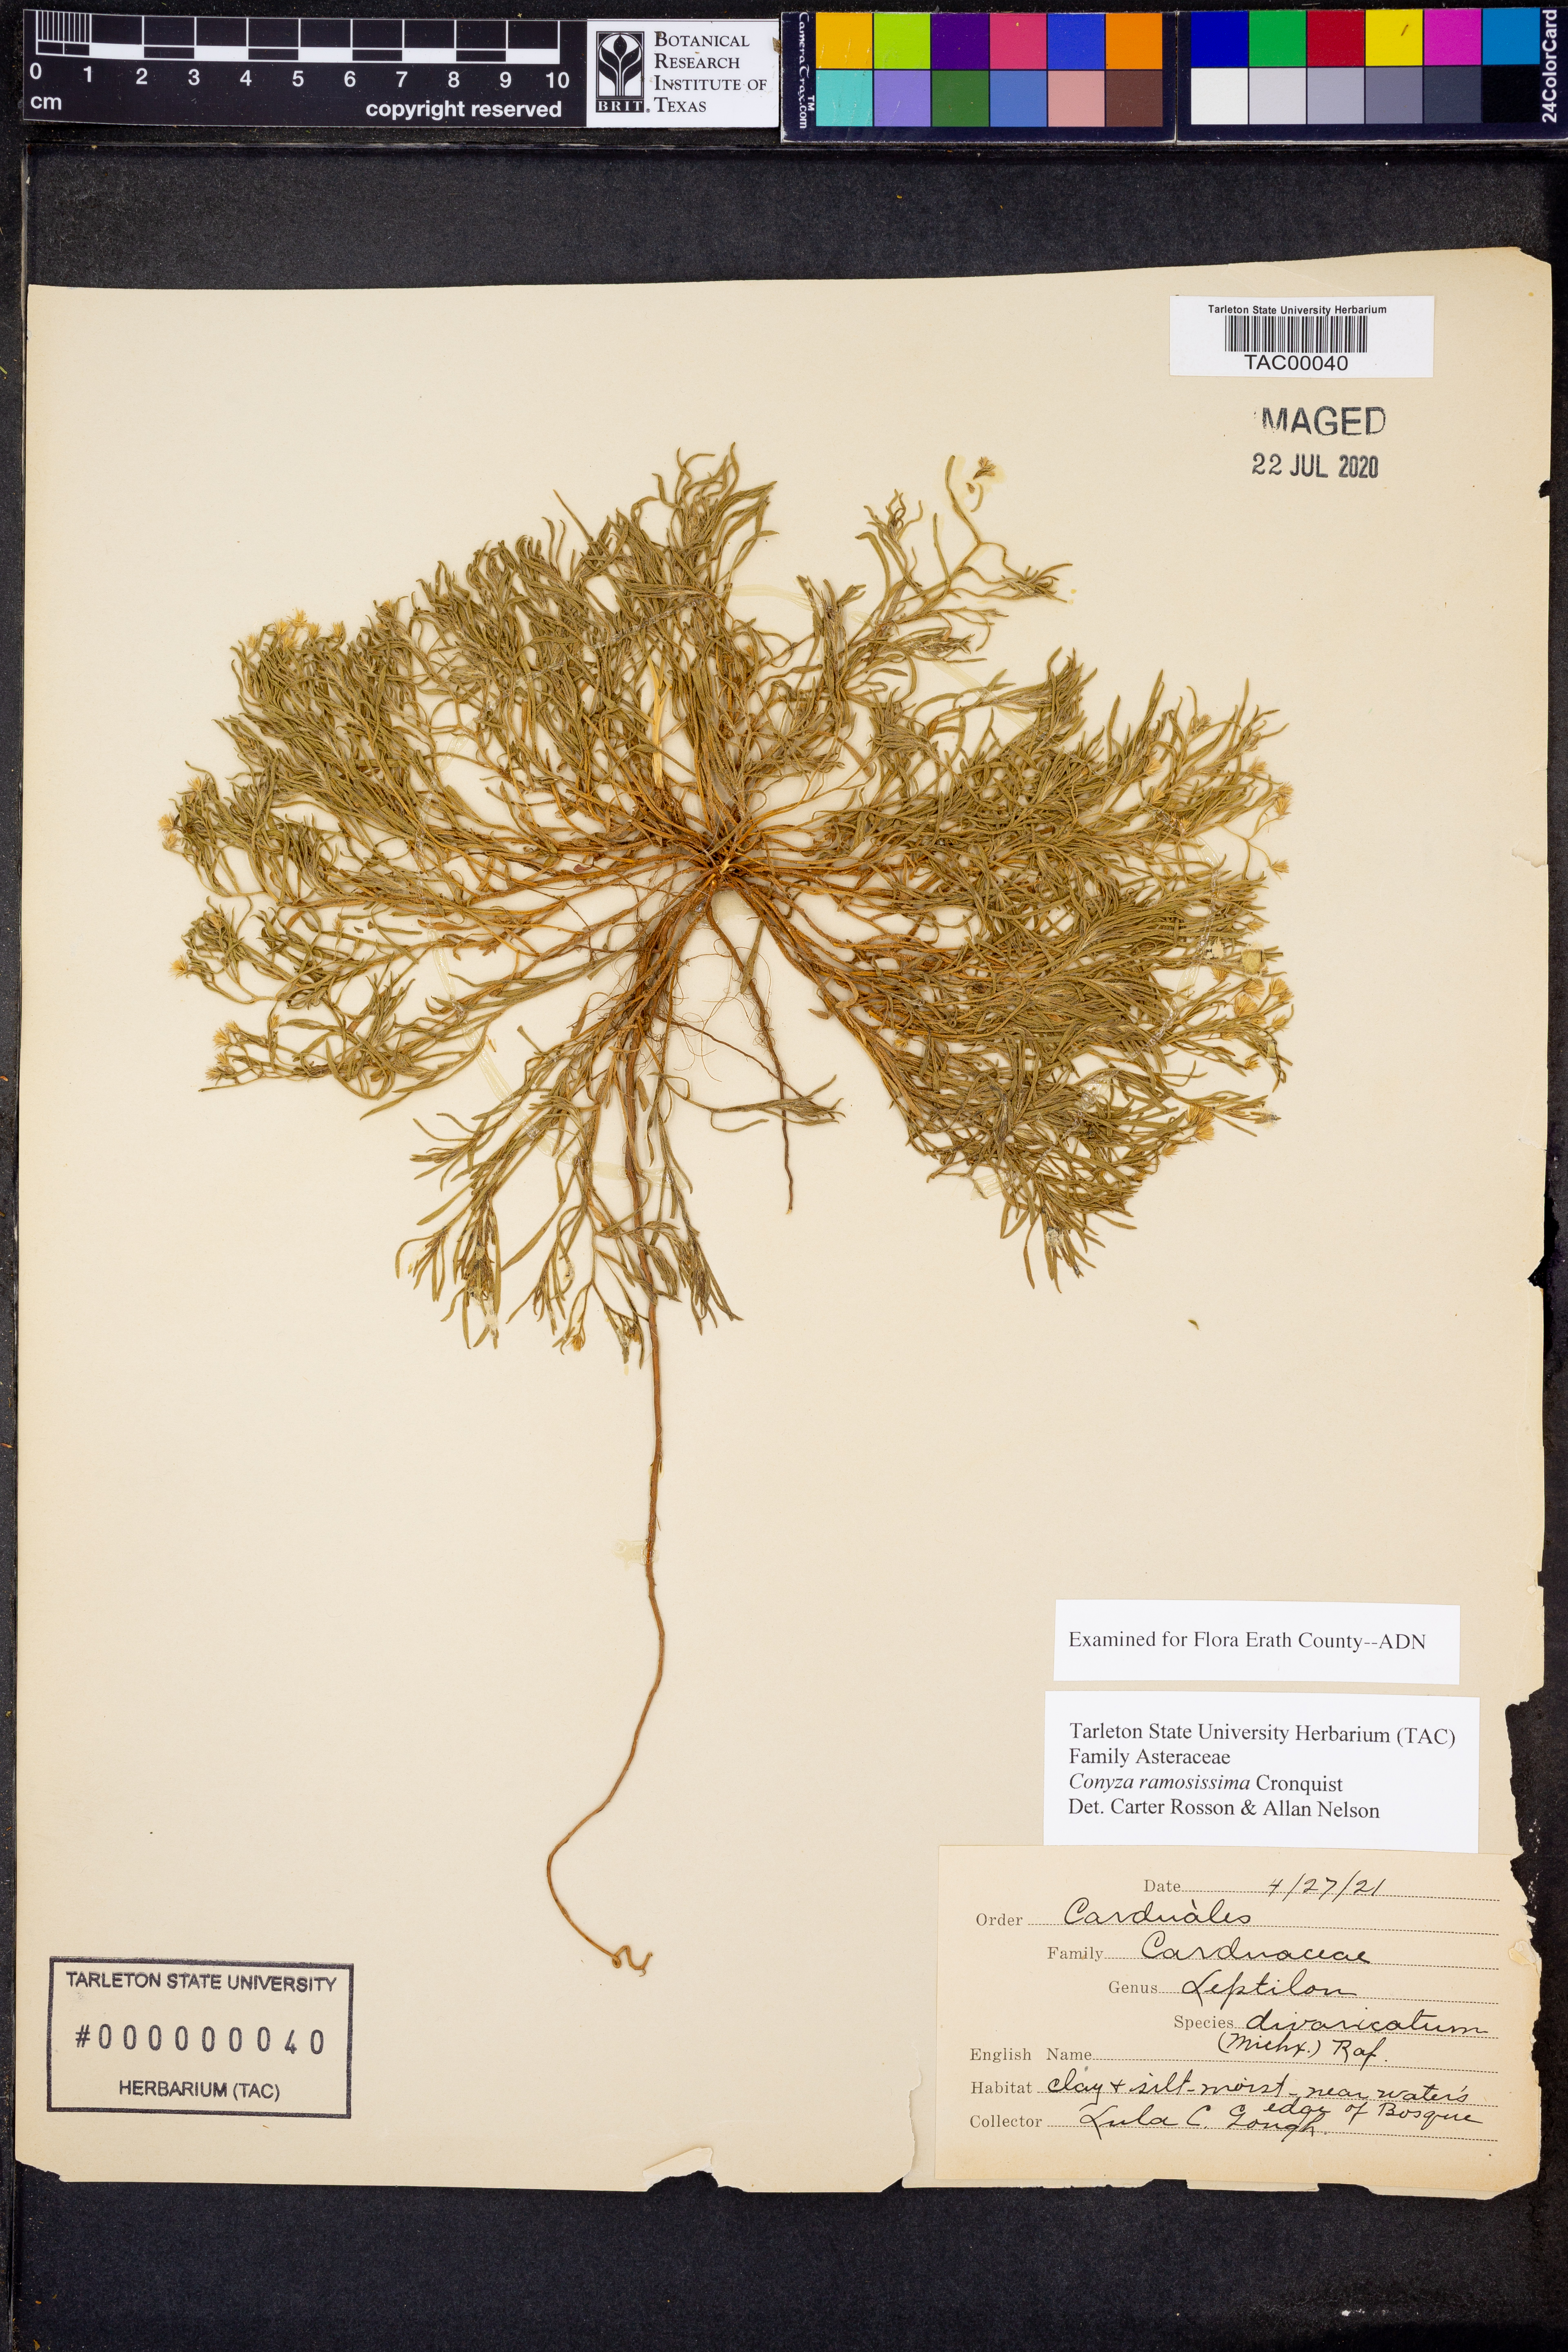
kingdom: Plantae
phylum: Tracheophyta
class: Magnoliopsida
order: Asterales
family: Asteraceae
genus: Erigeron
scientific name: Erigeron divaricatus
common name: Dwarf conyza
